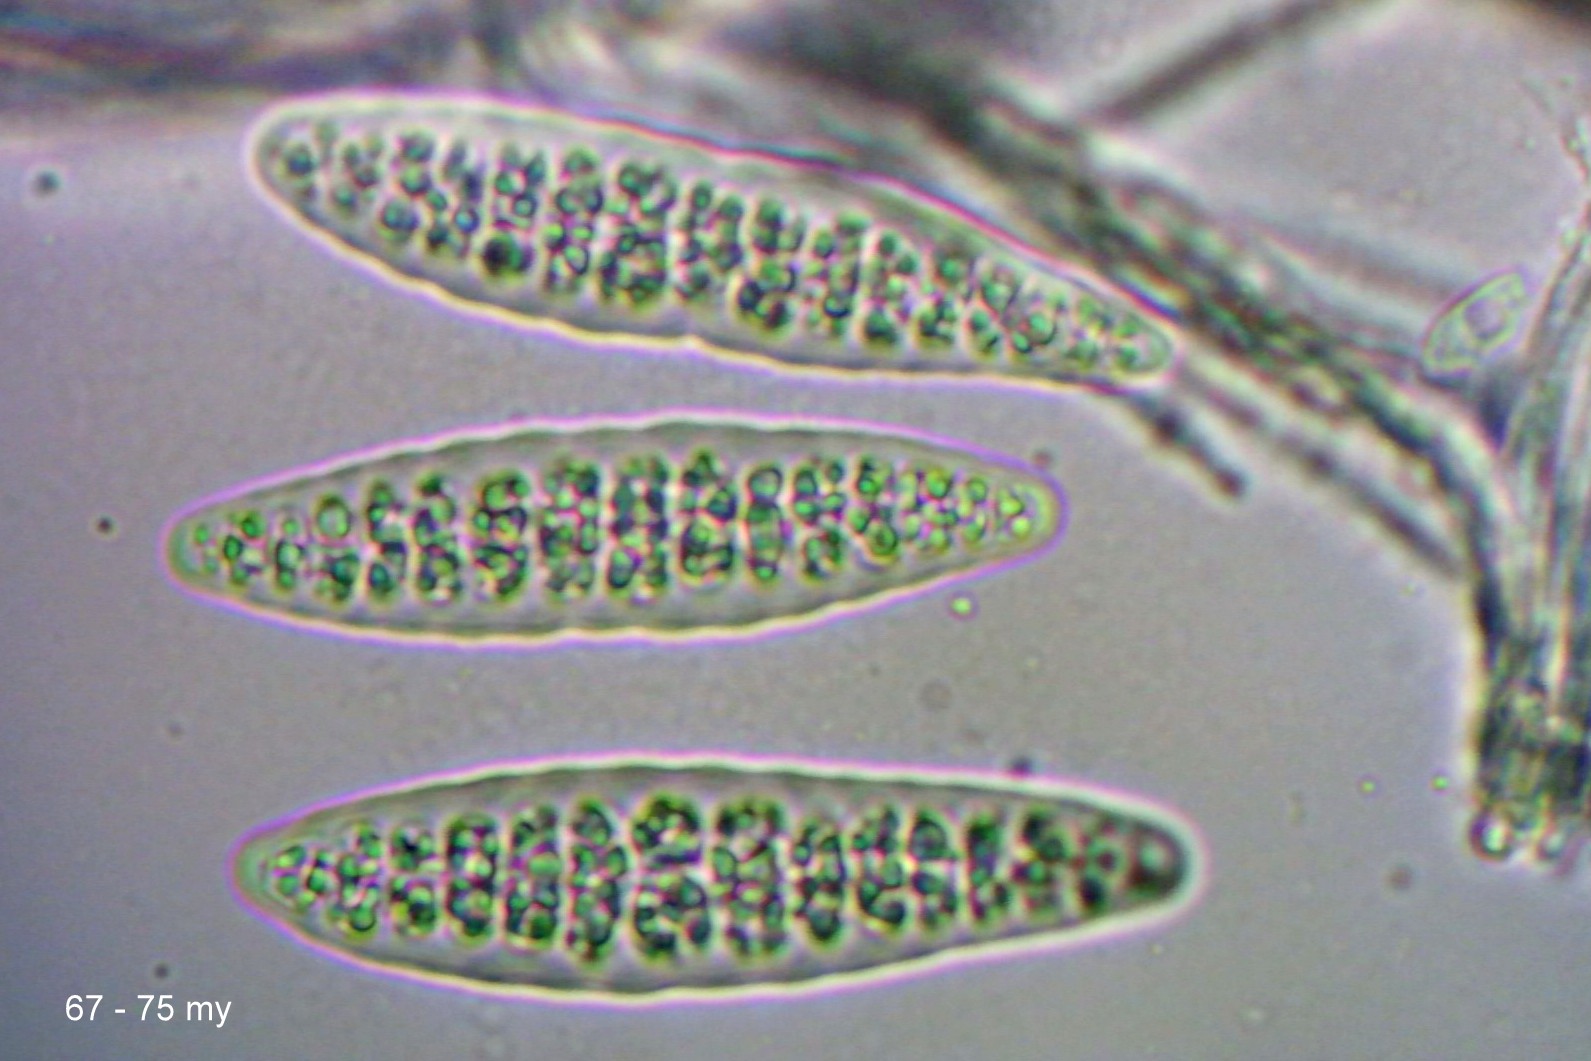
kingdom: Fungi
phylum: Ascomycota
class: Lecanoromycetes
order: Ostropales
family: Graphidaceae
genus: Thelotrema
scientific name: Thelotrema lepadinum
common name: almindelig slørkantlav
